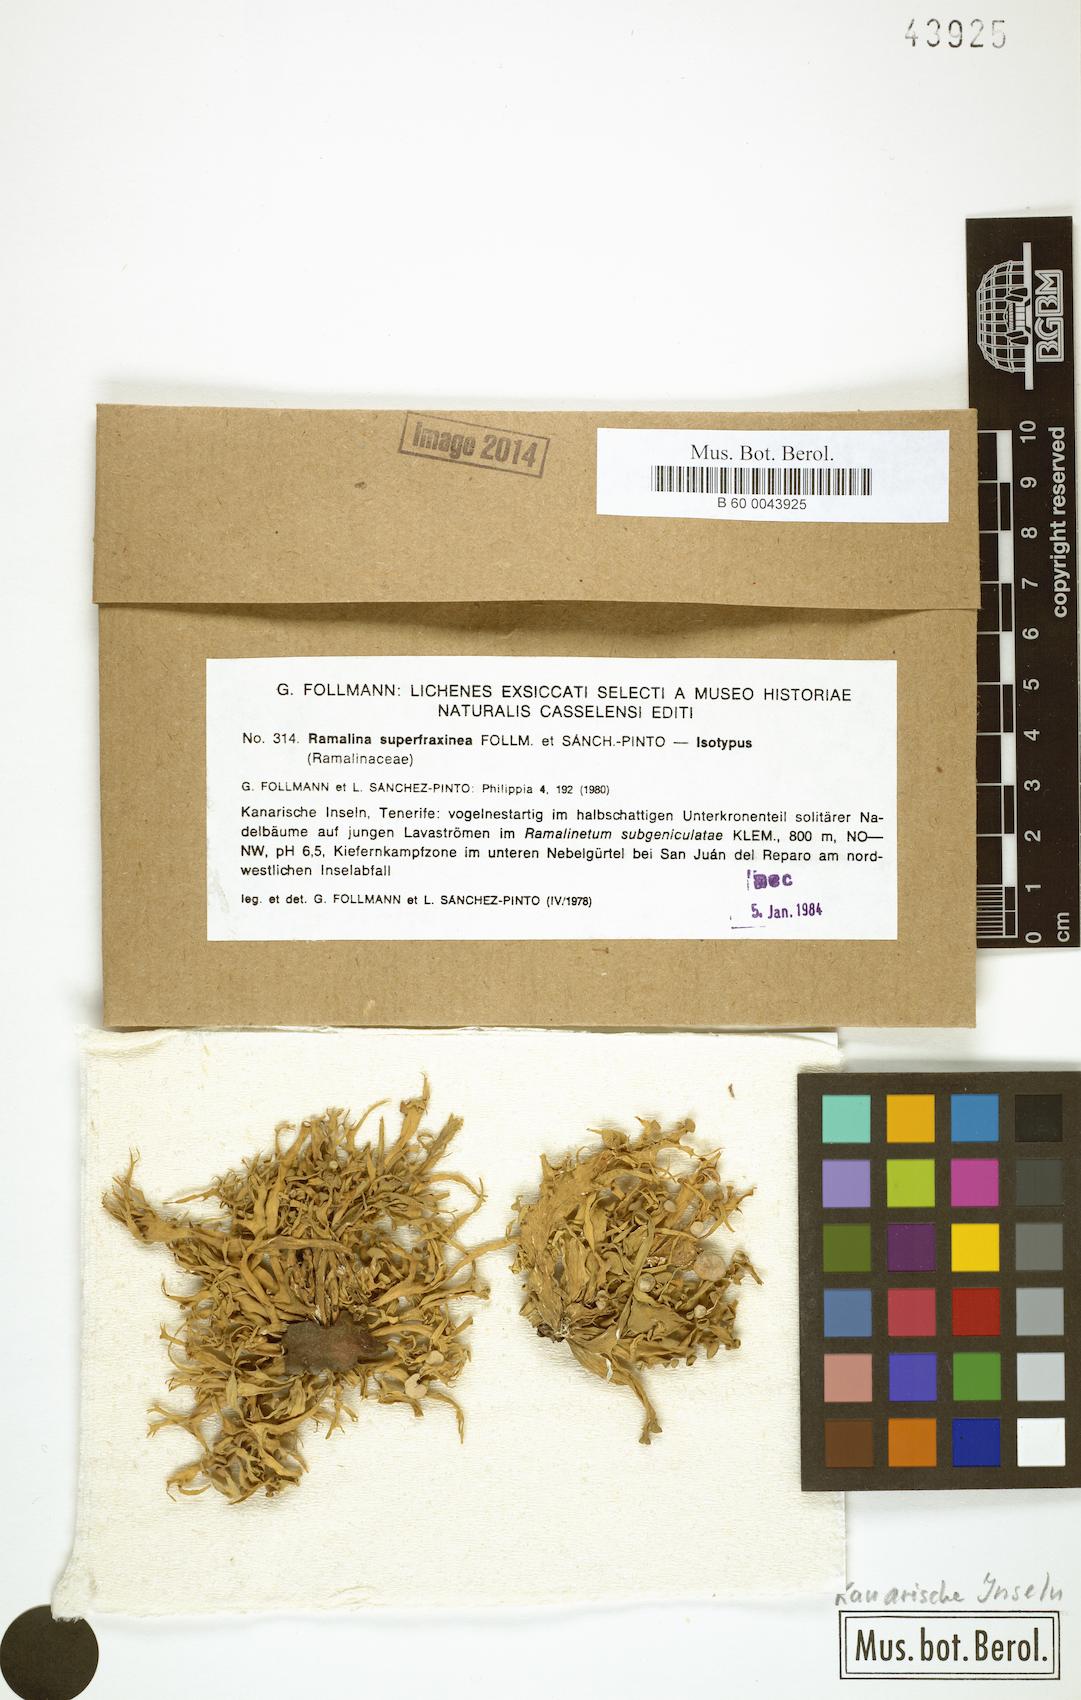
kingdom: Fungi
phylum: Ascomycota
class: Lecanoromycetes
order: Lecanorales
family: Ramalinaceae
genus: Ramalina
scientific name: Ramalina superfraxinea
